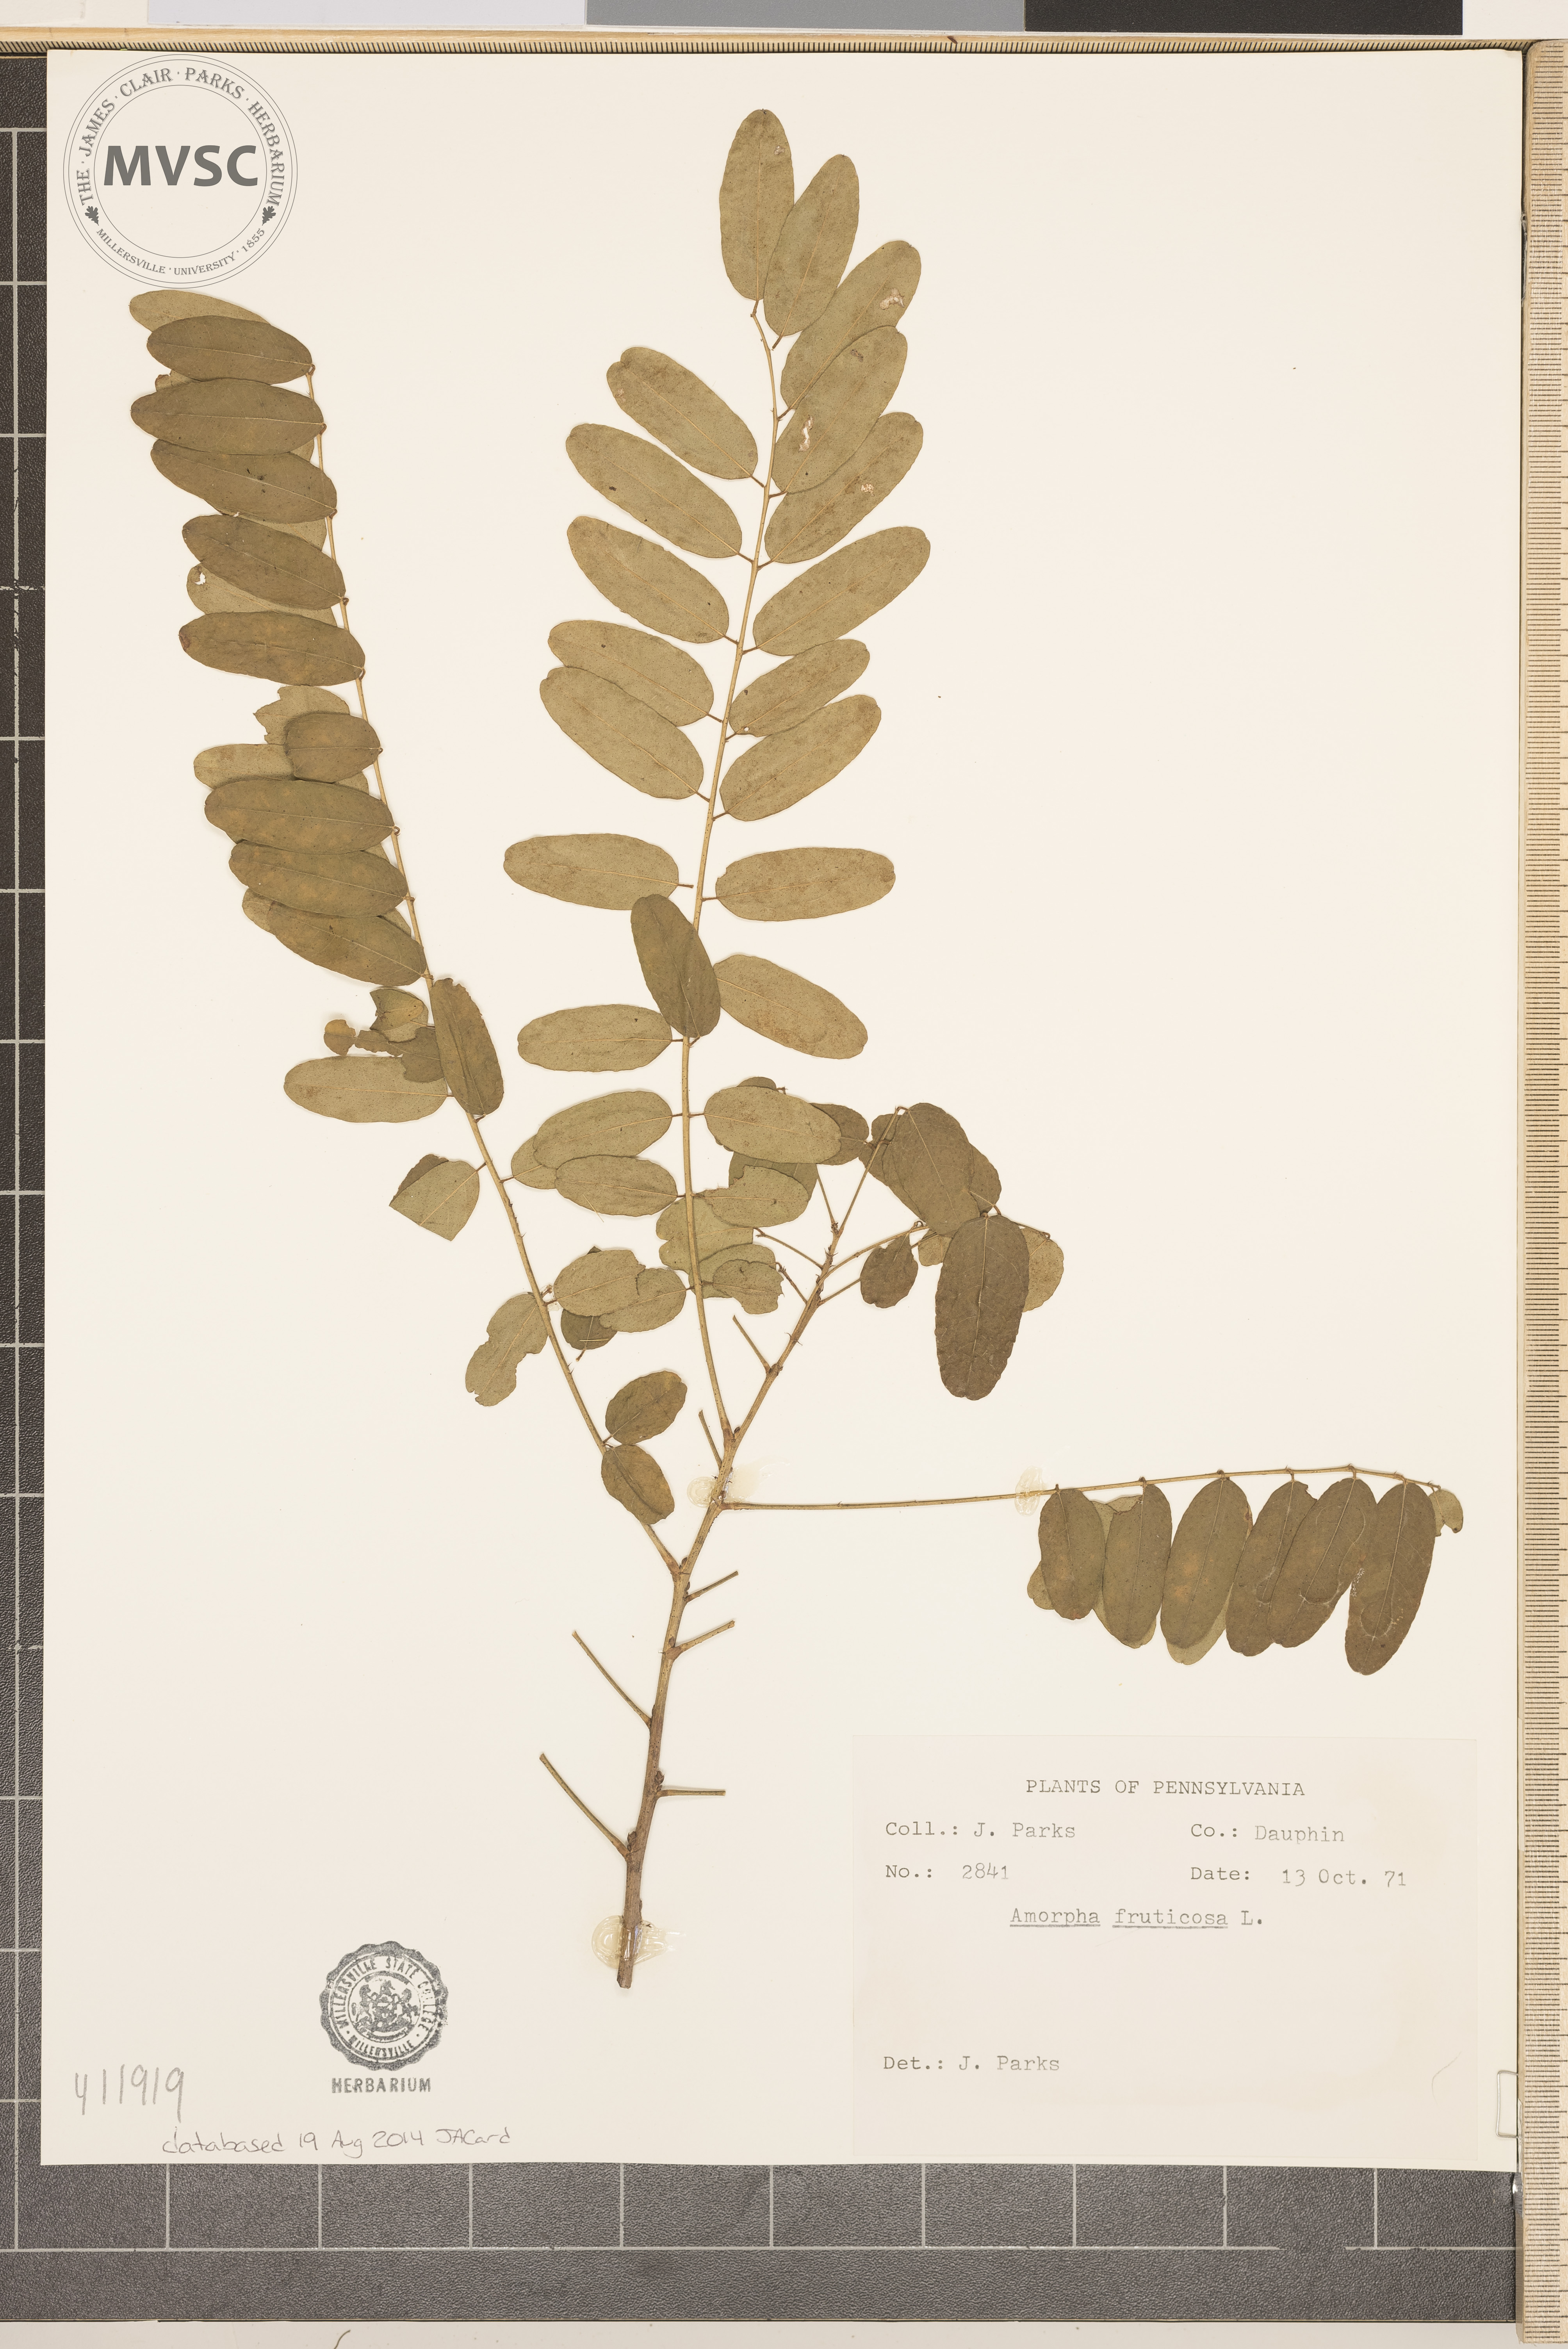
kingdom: Plantae
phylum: Tracheophyta
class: Magnoliopsida
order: Fabales
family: Fabaceae
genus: Amorpha
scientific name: Amorpha fruticosa
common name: False indigo
